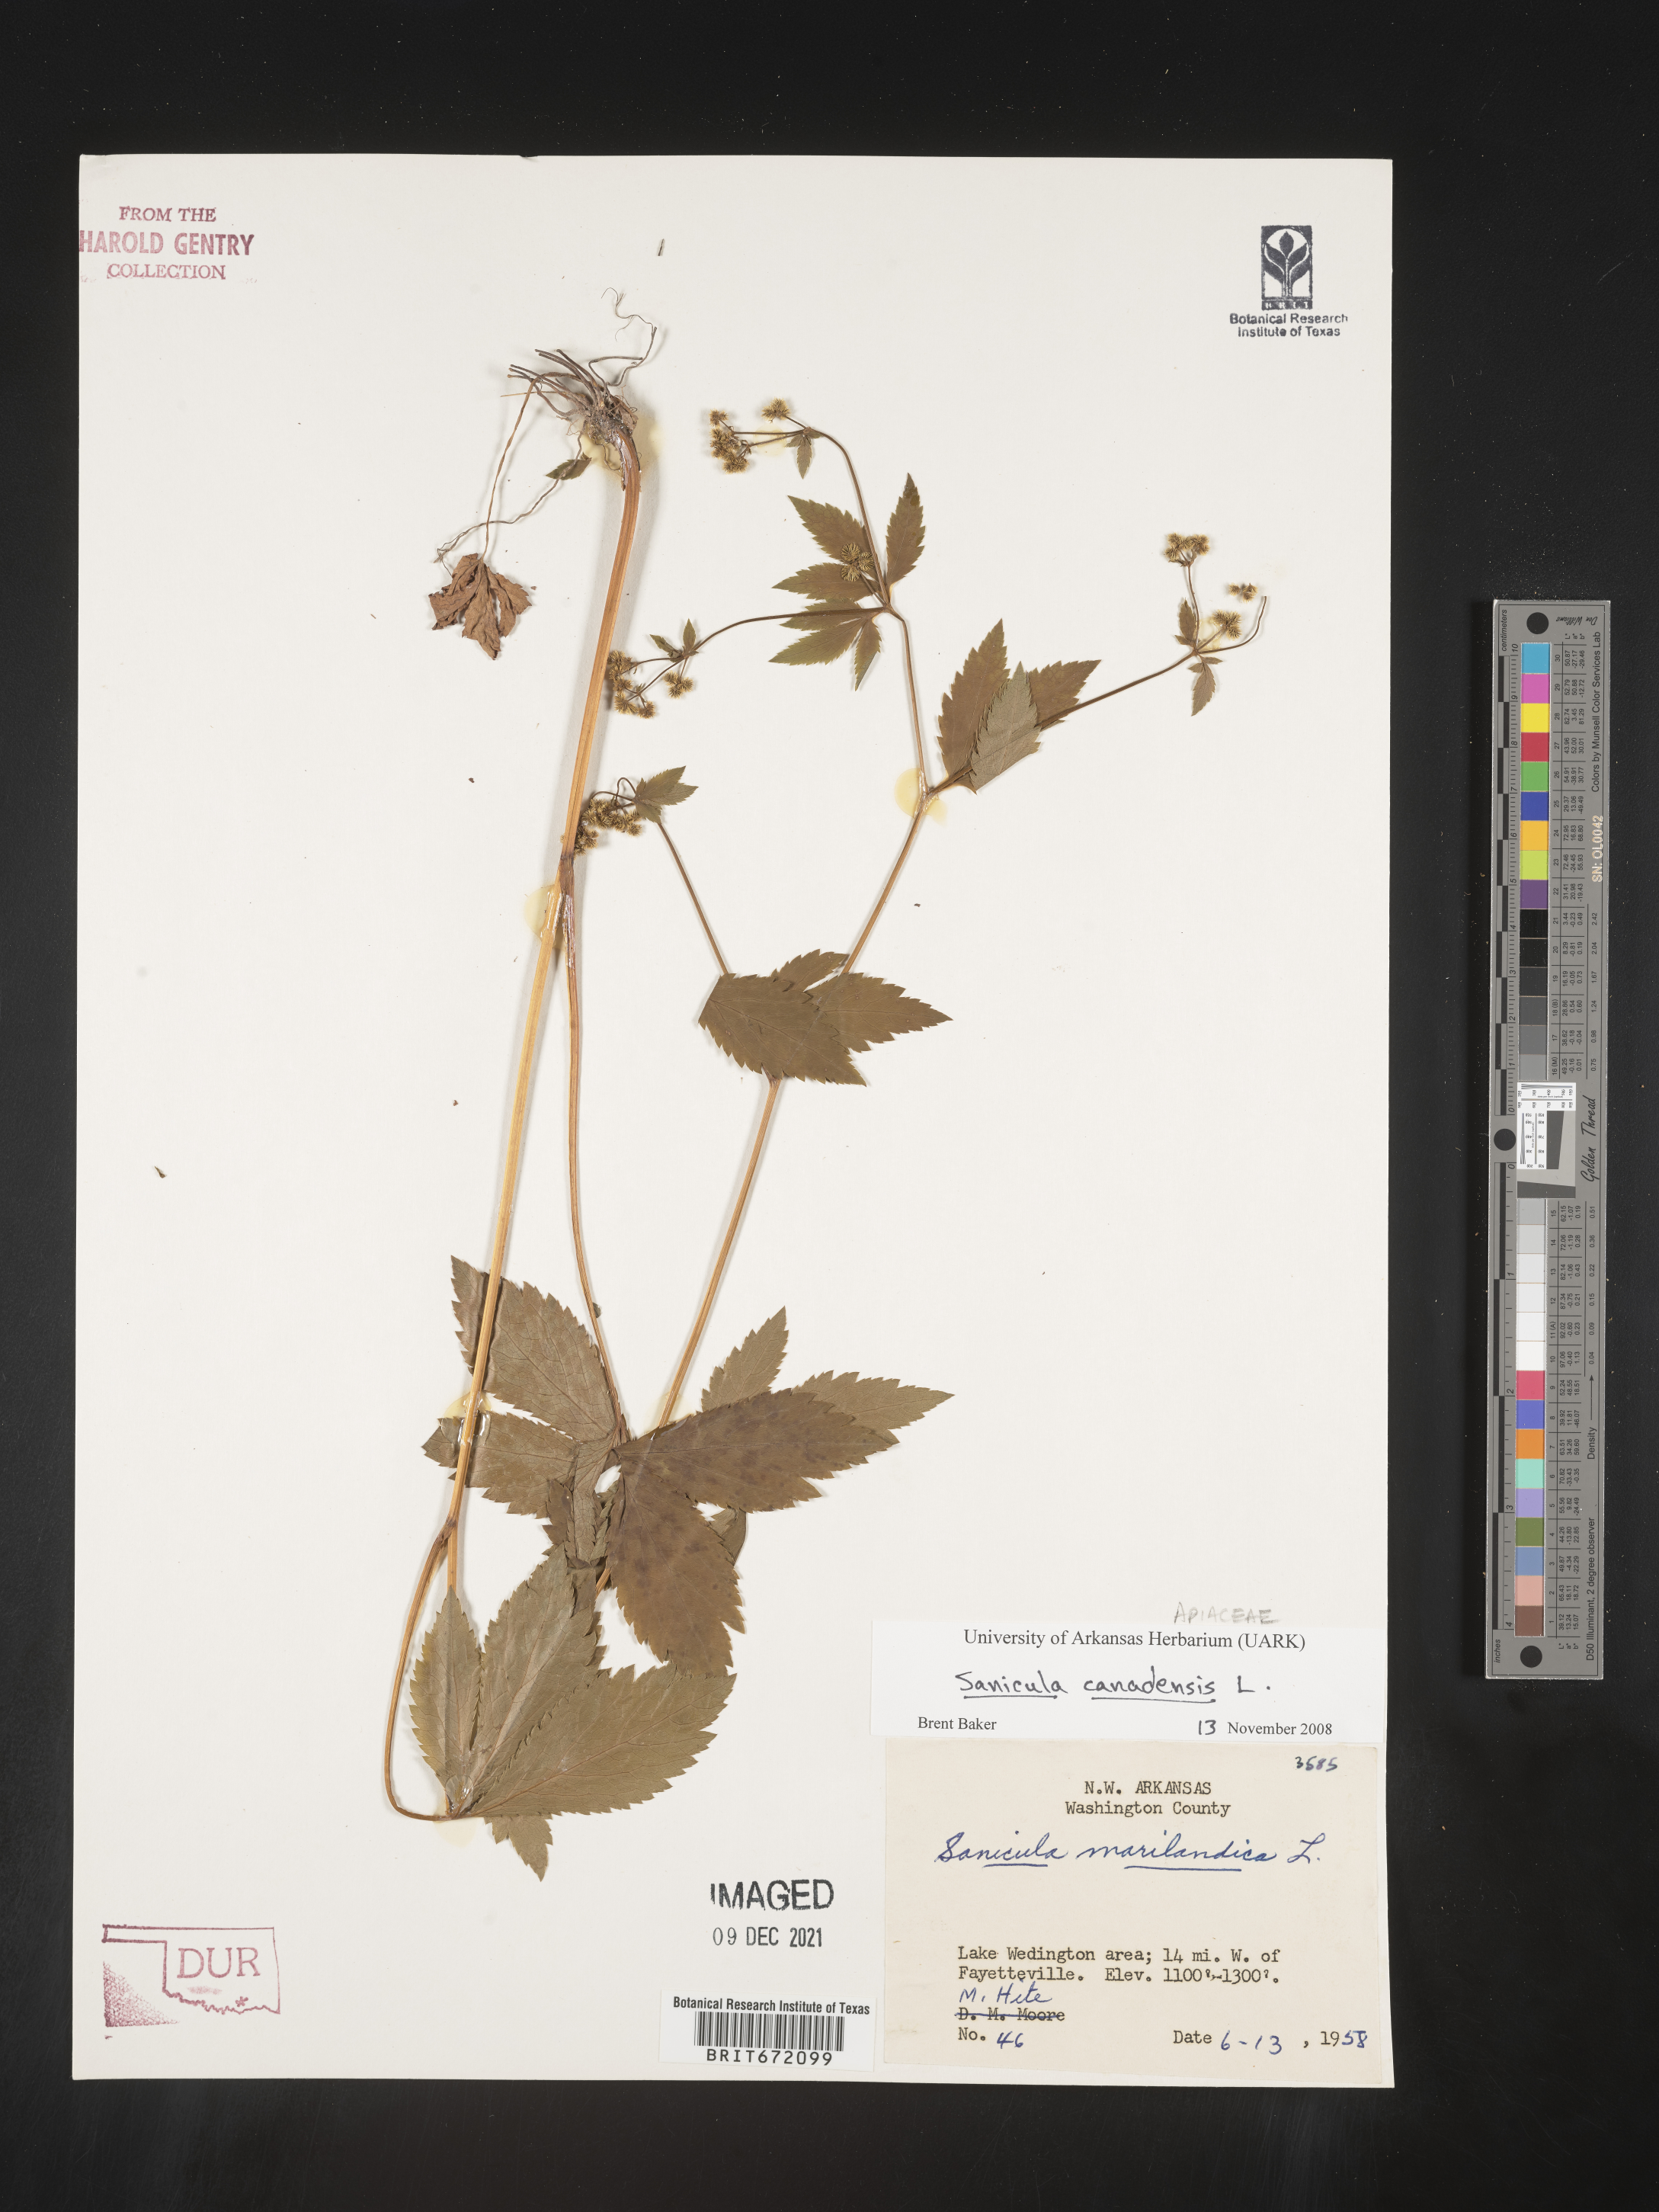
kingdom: Plantae
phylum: Tracheophyta
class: Magnoliopsida
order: Apiales
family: Apiaceae
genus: Sanicula
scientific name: Sanicula canadensis
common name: Canada sanicle
